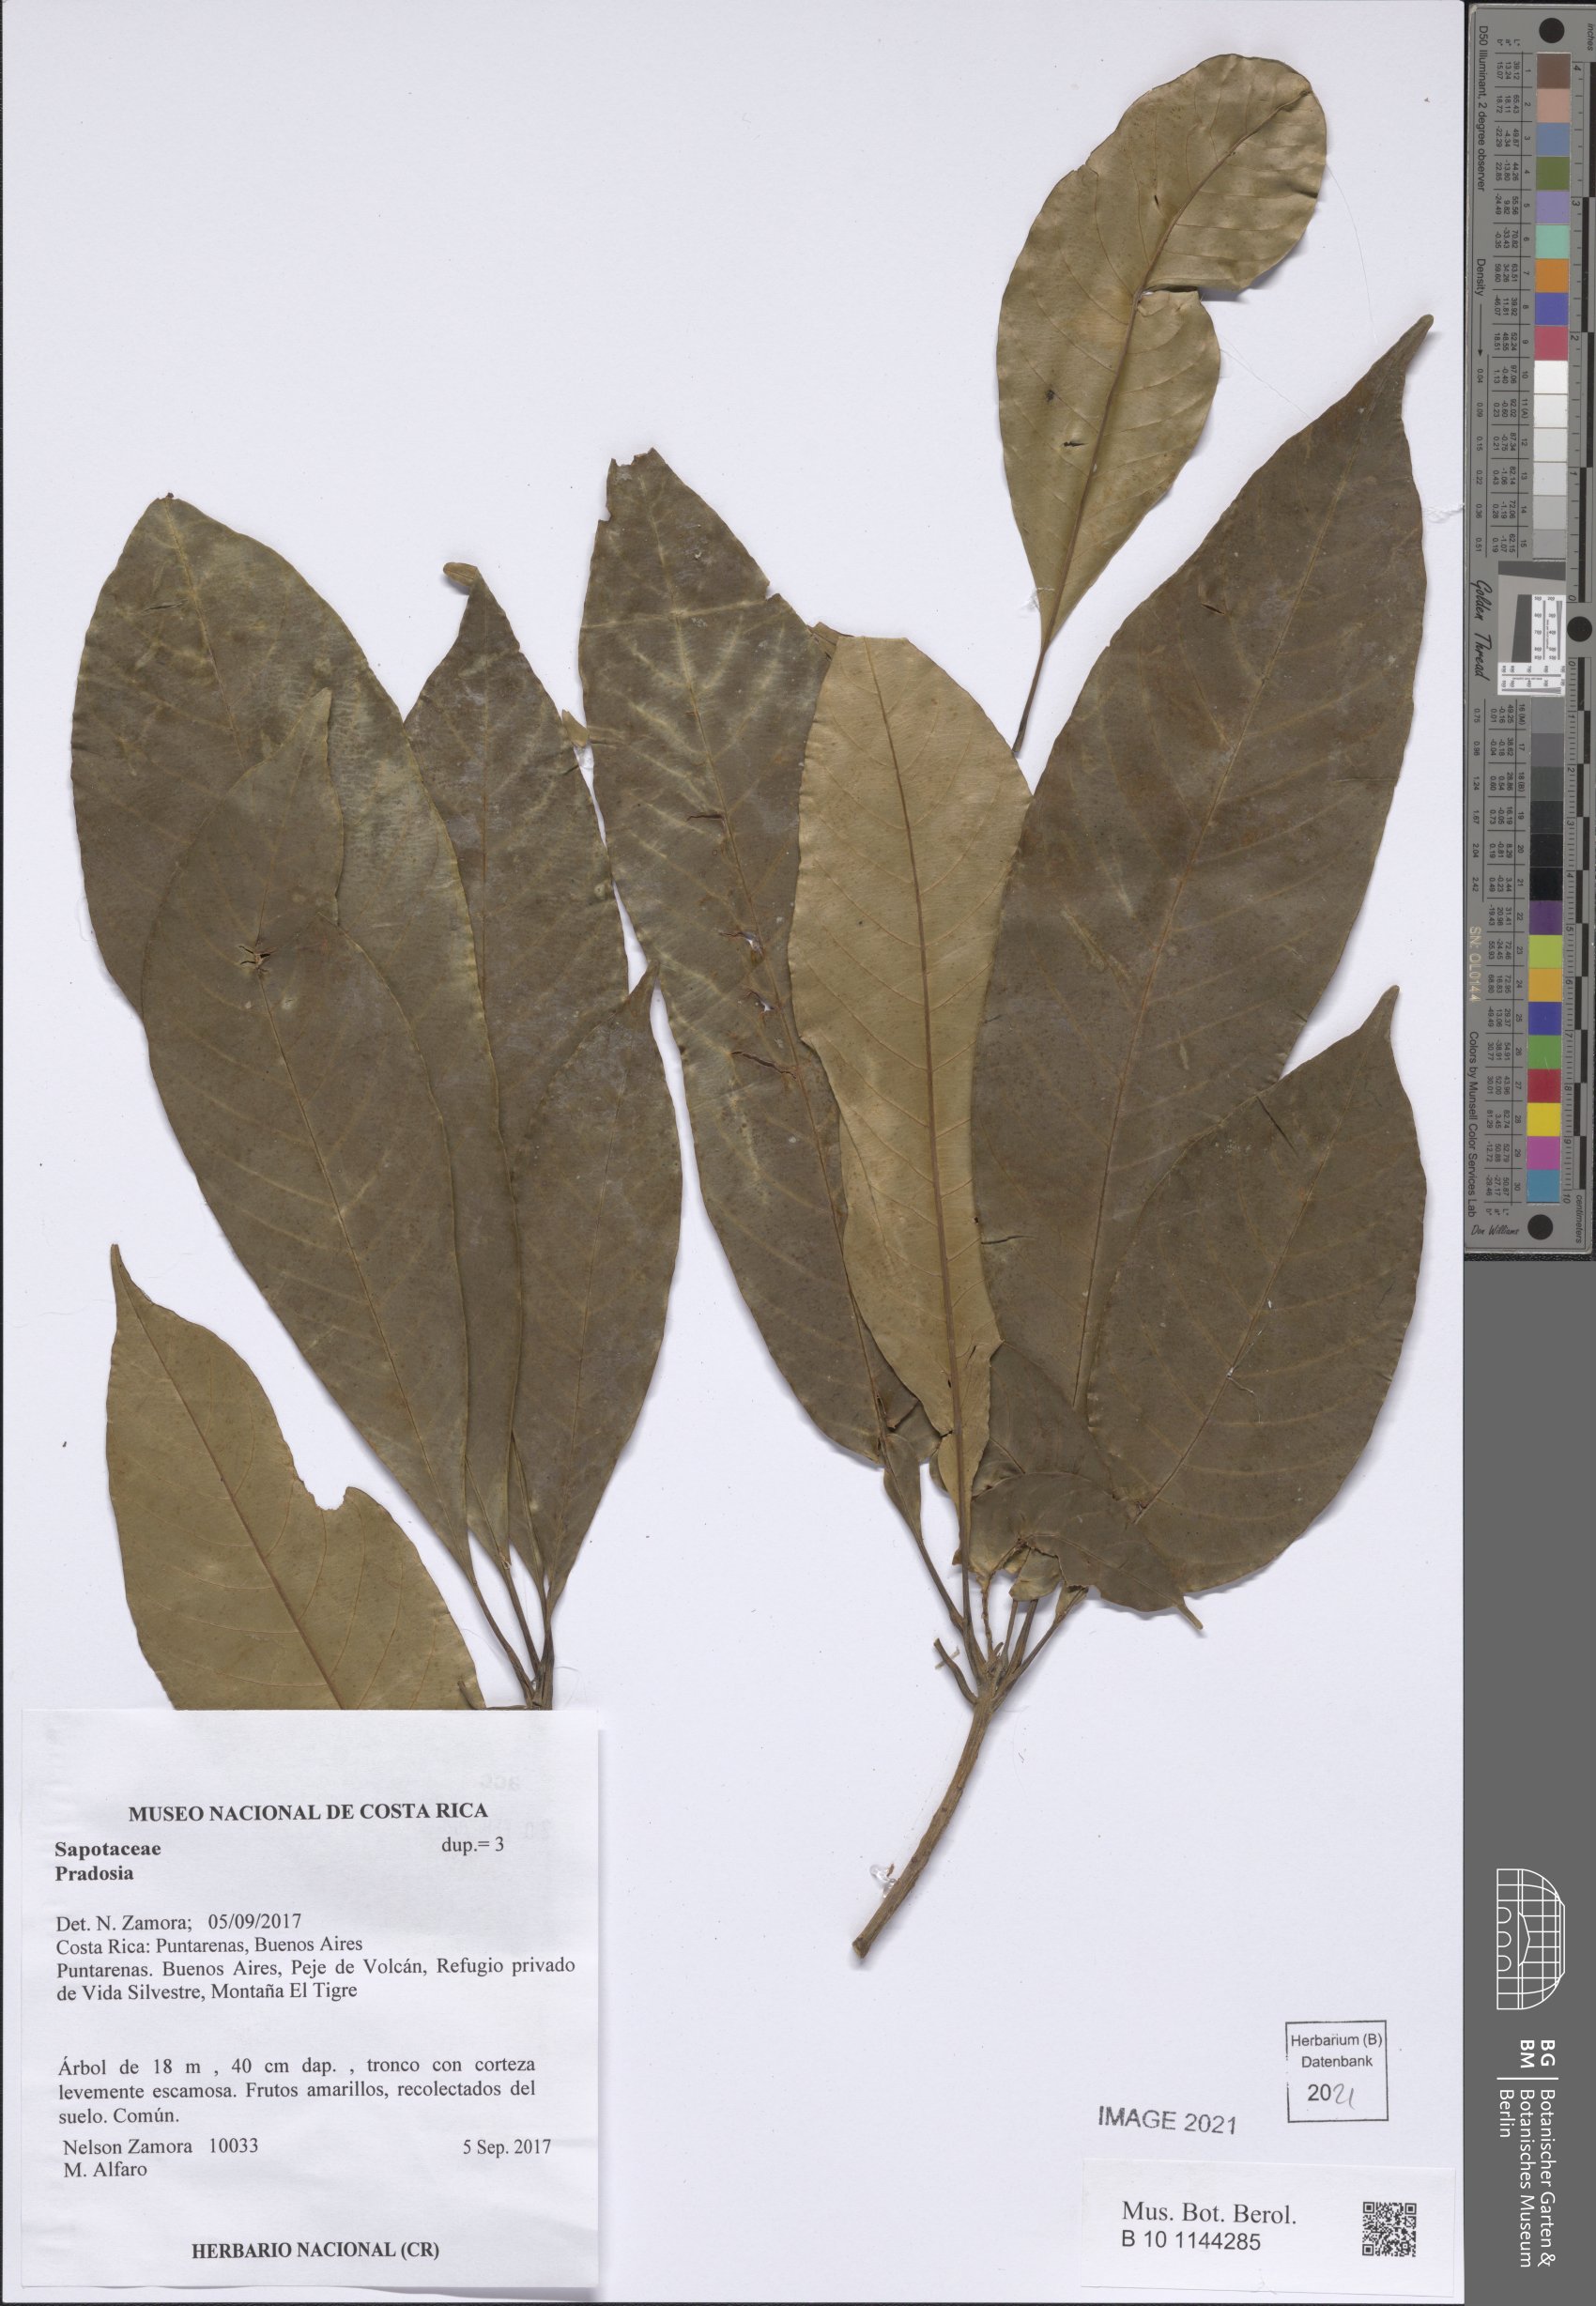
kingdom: Plantae
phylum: Tracheophyta
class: Magnoliopsida
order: Ericales
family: Sapotaceae
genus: Pradosia
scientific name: Pradosia
